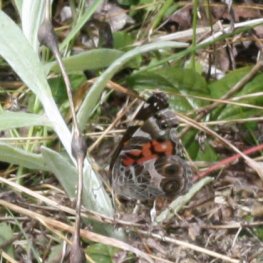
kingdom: Animalia
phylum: Arthropoda
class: Insecta
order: Lepidoptera
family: Nymphalidae
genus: Vanessa
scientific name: Vanessa virginiensis
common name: American Lady
